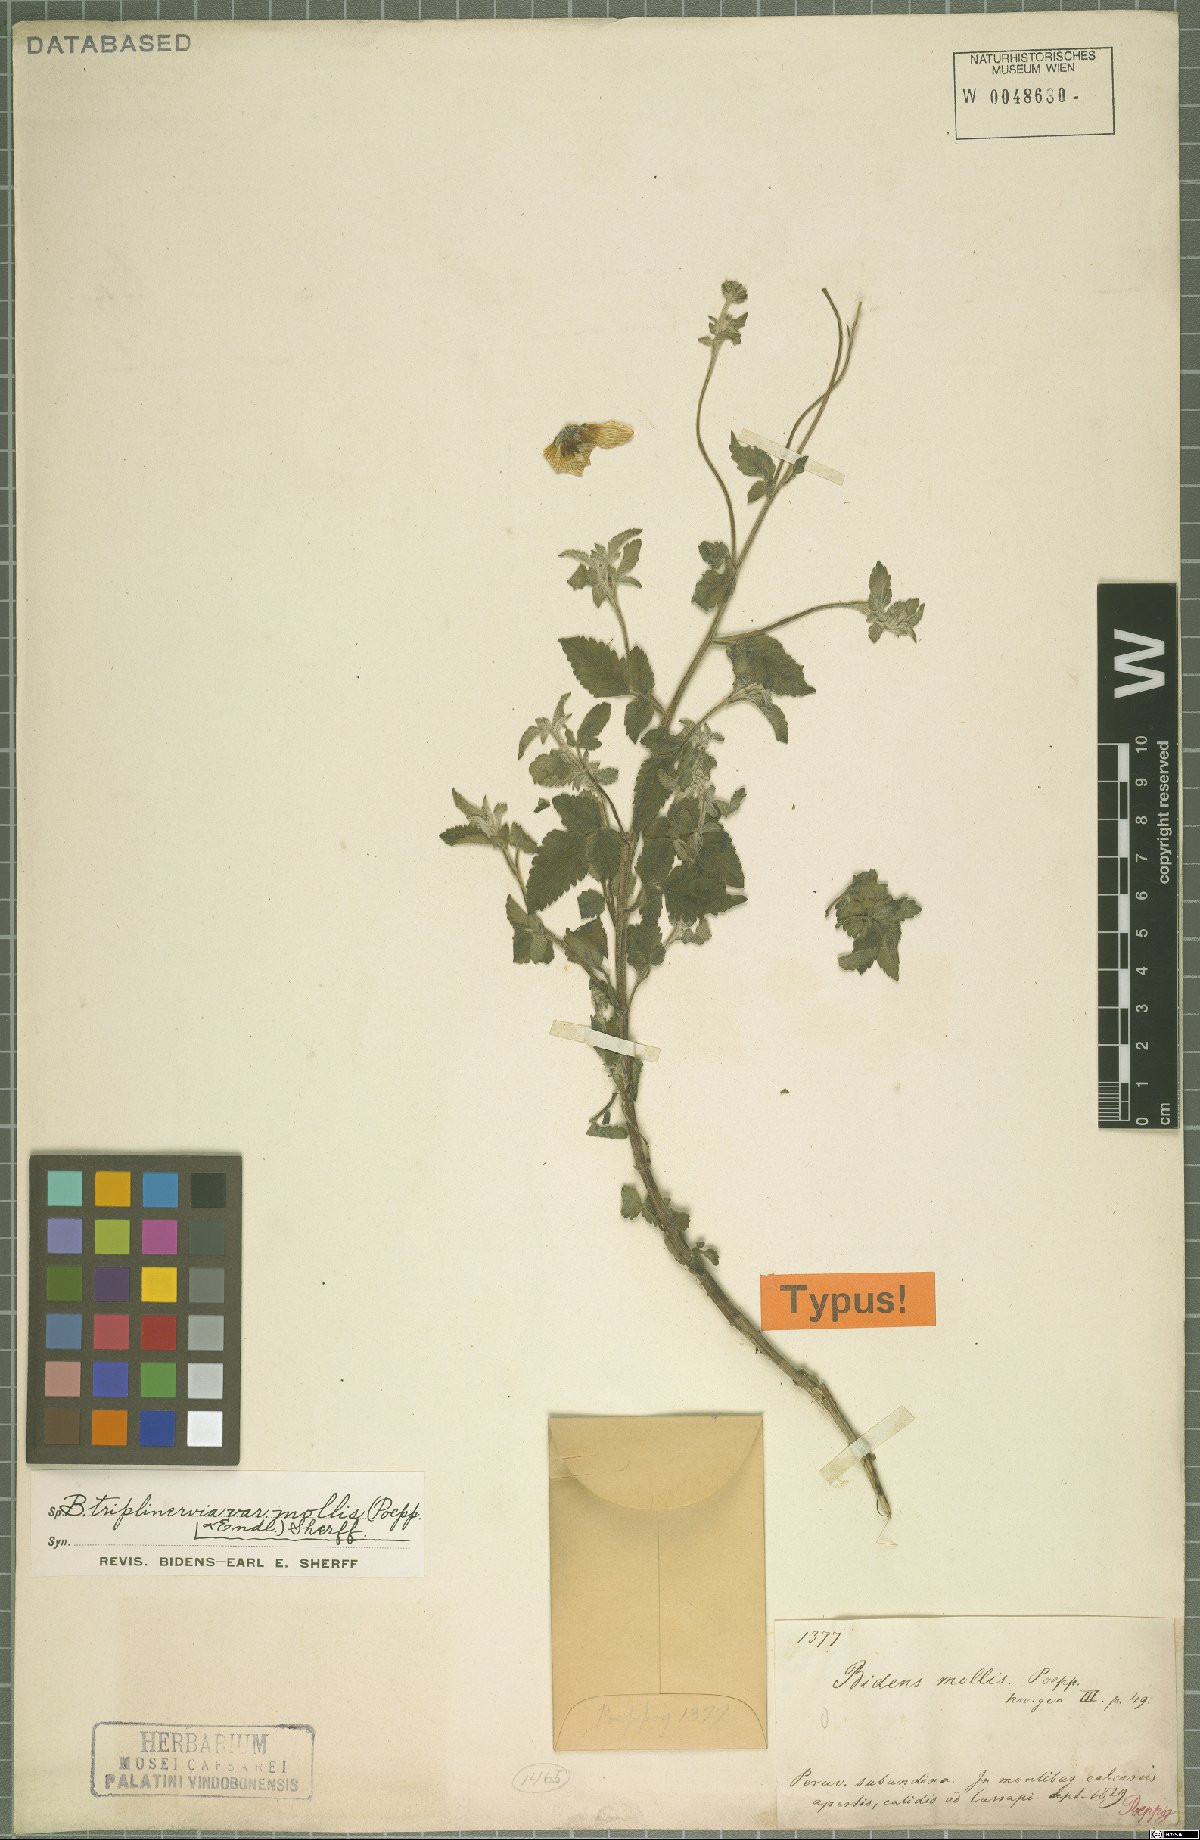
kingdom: Plantae
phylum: Tracheophyta
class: Magnoliopsida
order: Asterales
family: Asteraceae
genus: Bidens
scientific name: Bidens triplinervia
